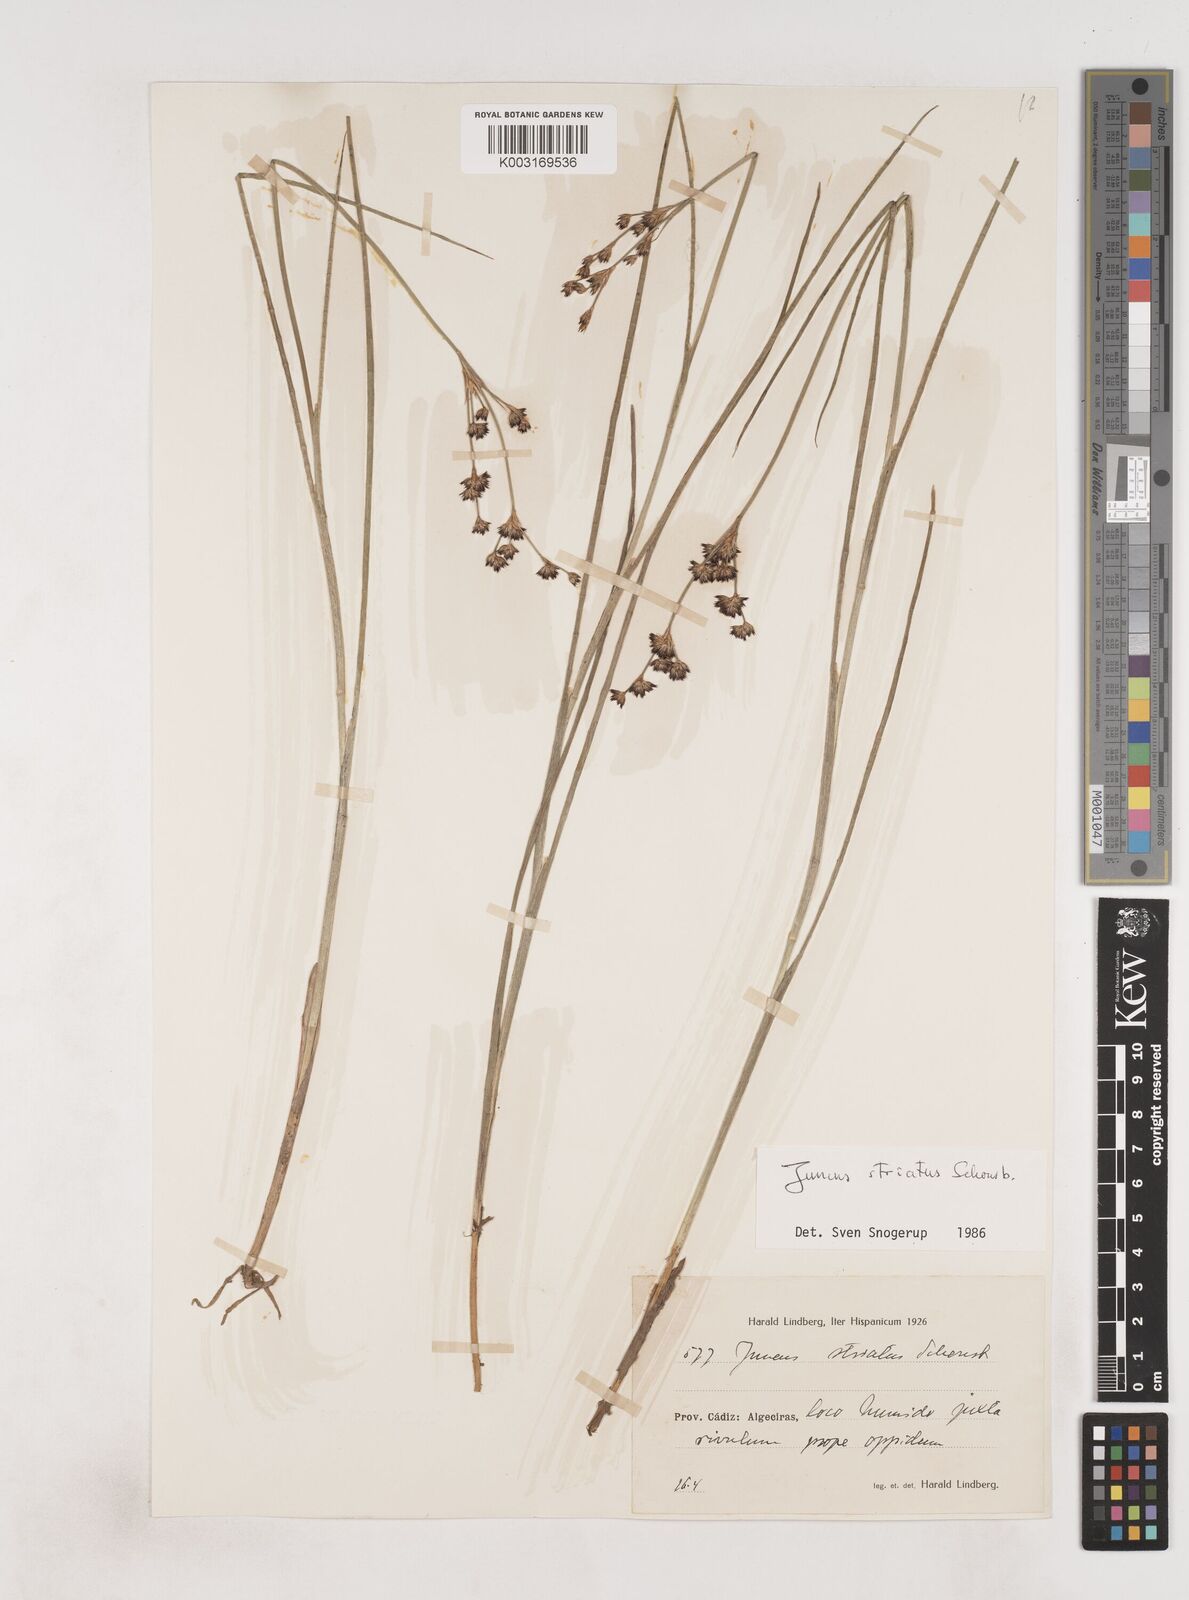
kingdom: Plantae
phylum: Tracheophyta
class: Liliopsida
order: Poales
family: Juncaceae
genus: Juncus
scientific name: Juncus striatus
